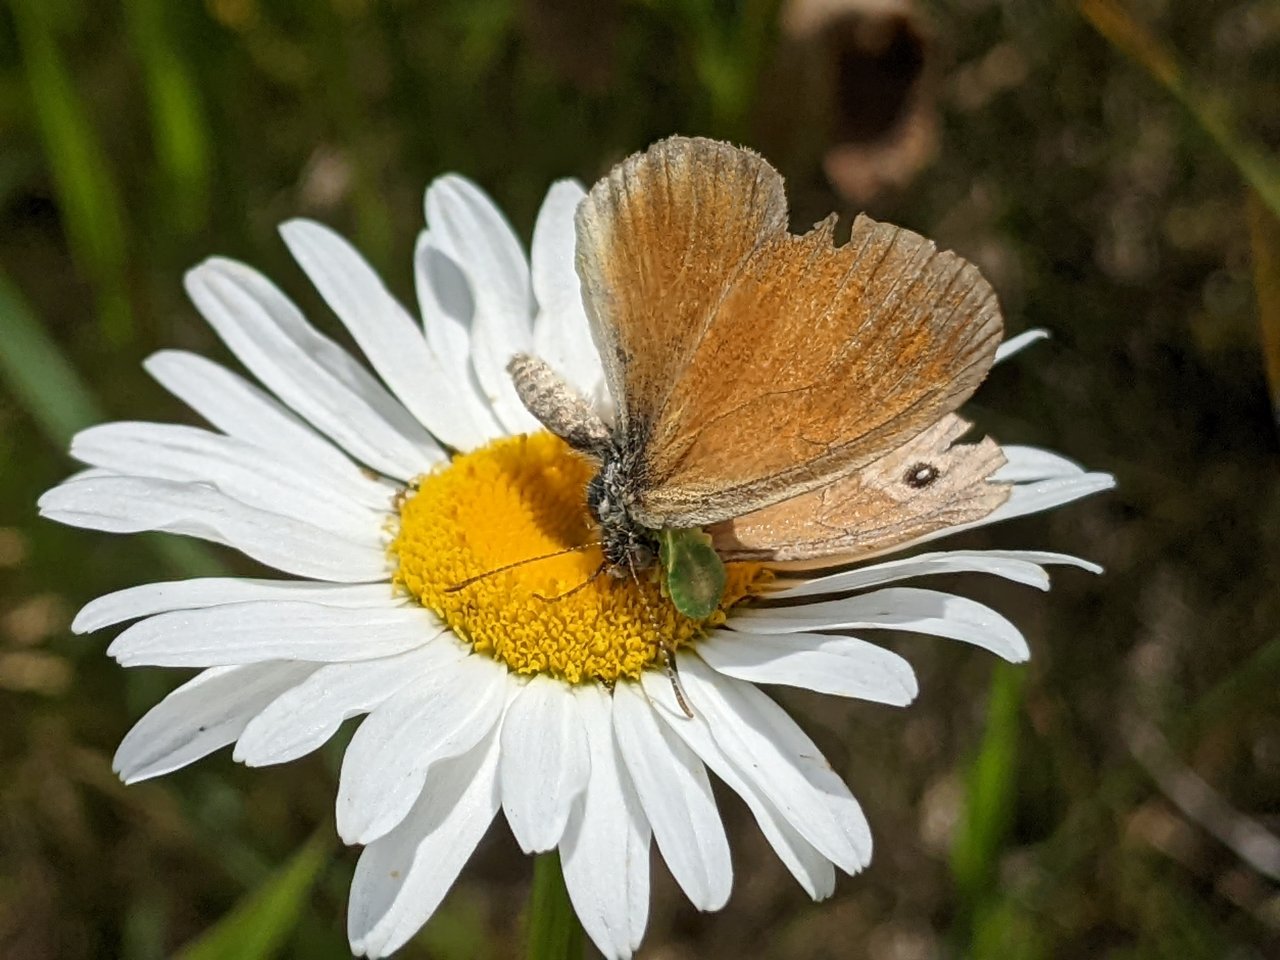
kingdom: Animalia
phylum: Arthropoda
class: Insecta
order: Lepidoptera
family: Nymphalidae
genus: Coenonympha
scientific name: Coenonympha tullia
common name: Large Heath
